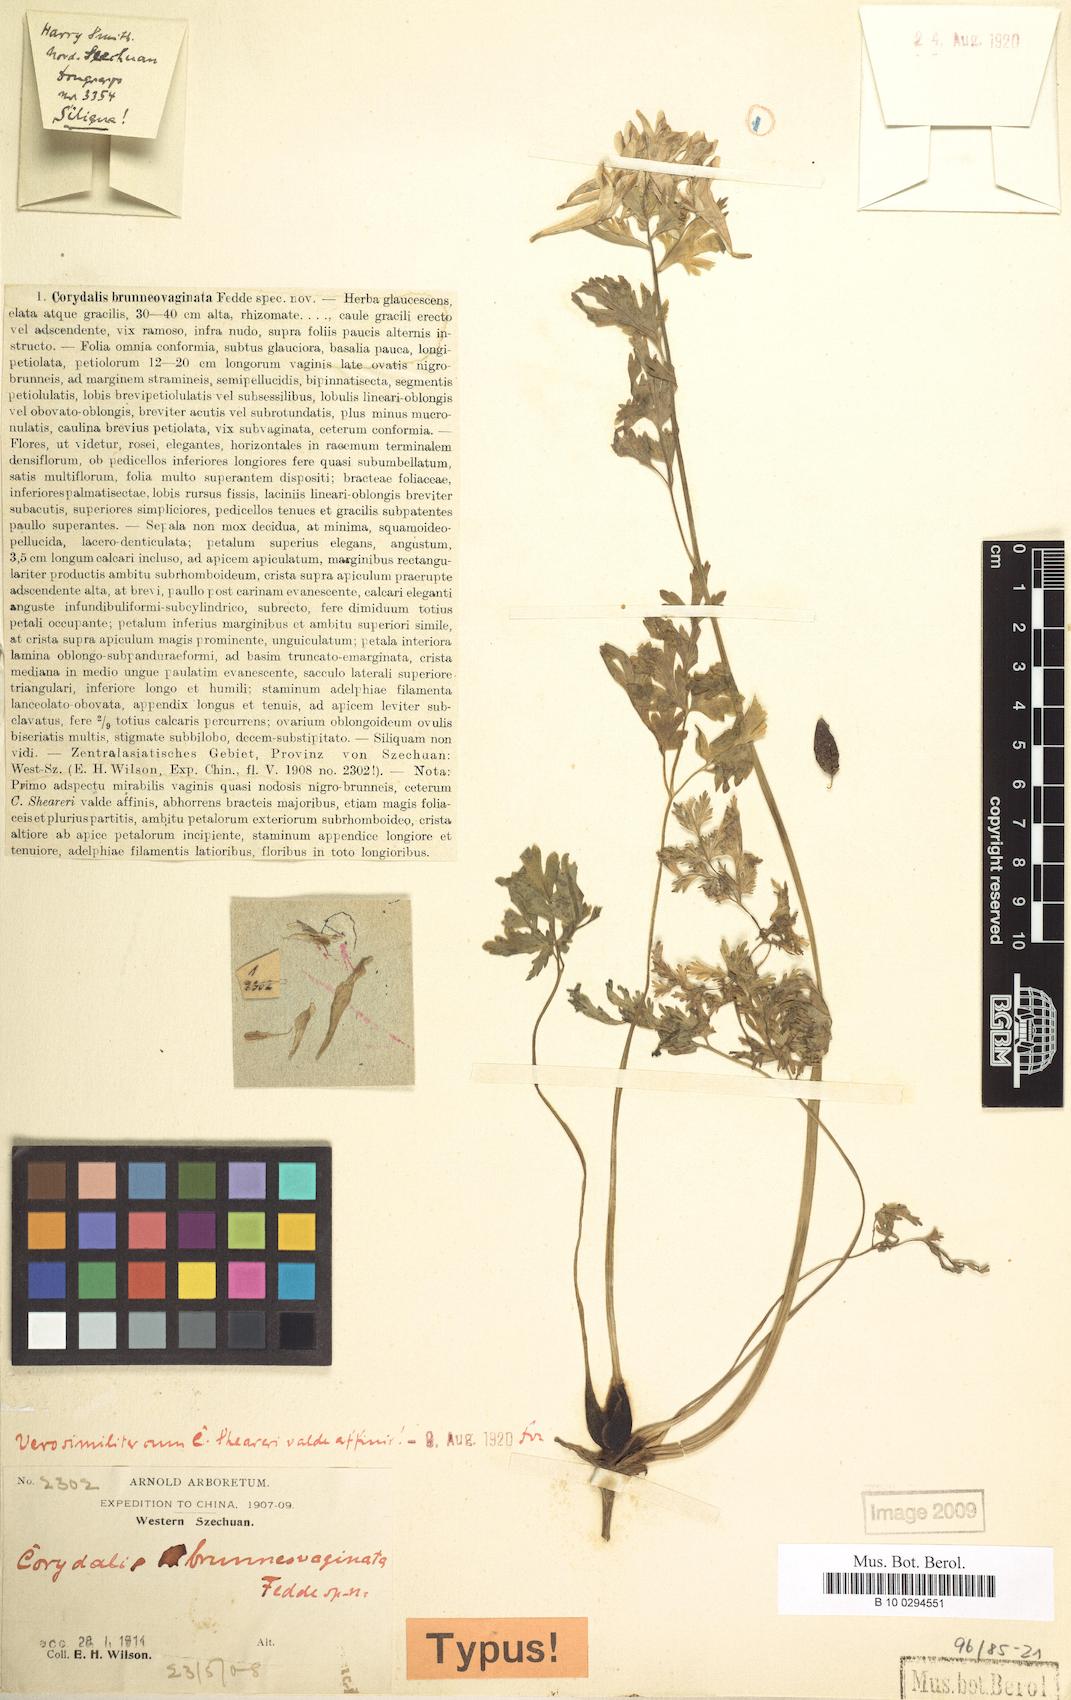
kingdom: Plantae
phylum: Tracheophyta
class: Magnoliopsida
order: Ranunculales
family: Papaveraceae
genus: Corydalis
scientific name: Corydalis brunneovaginata
